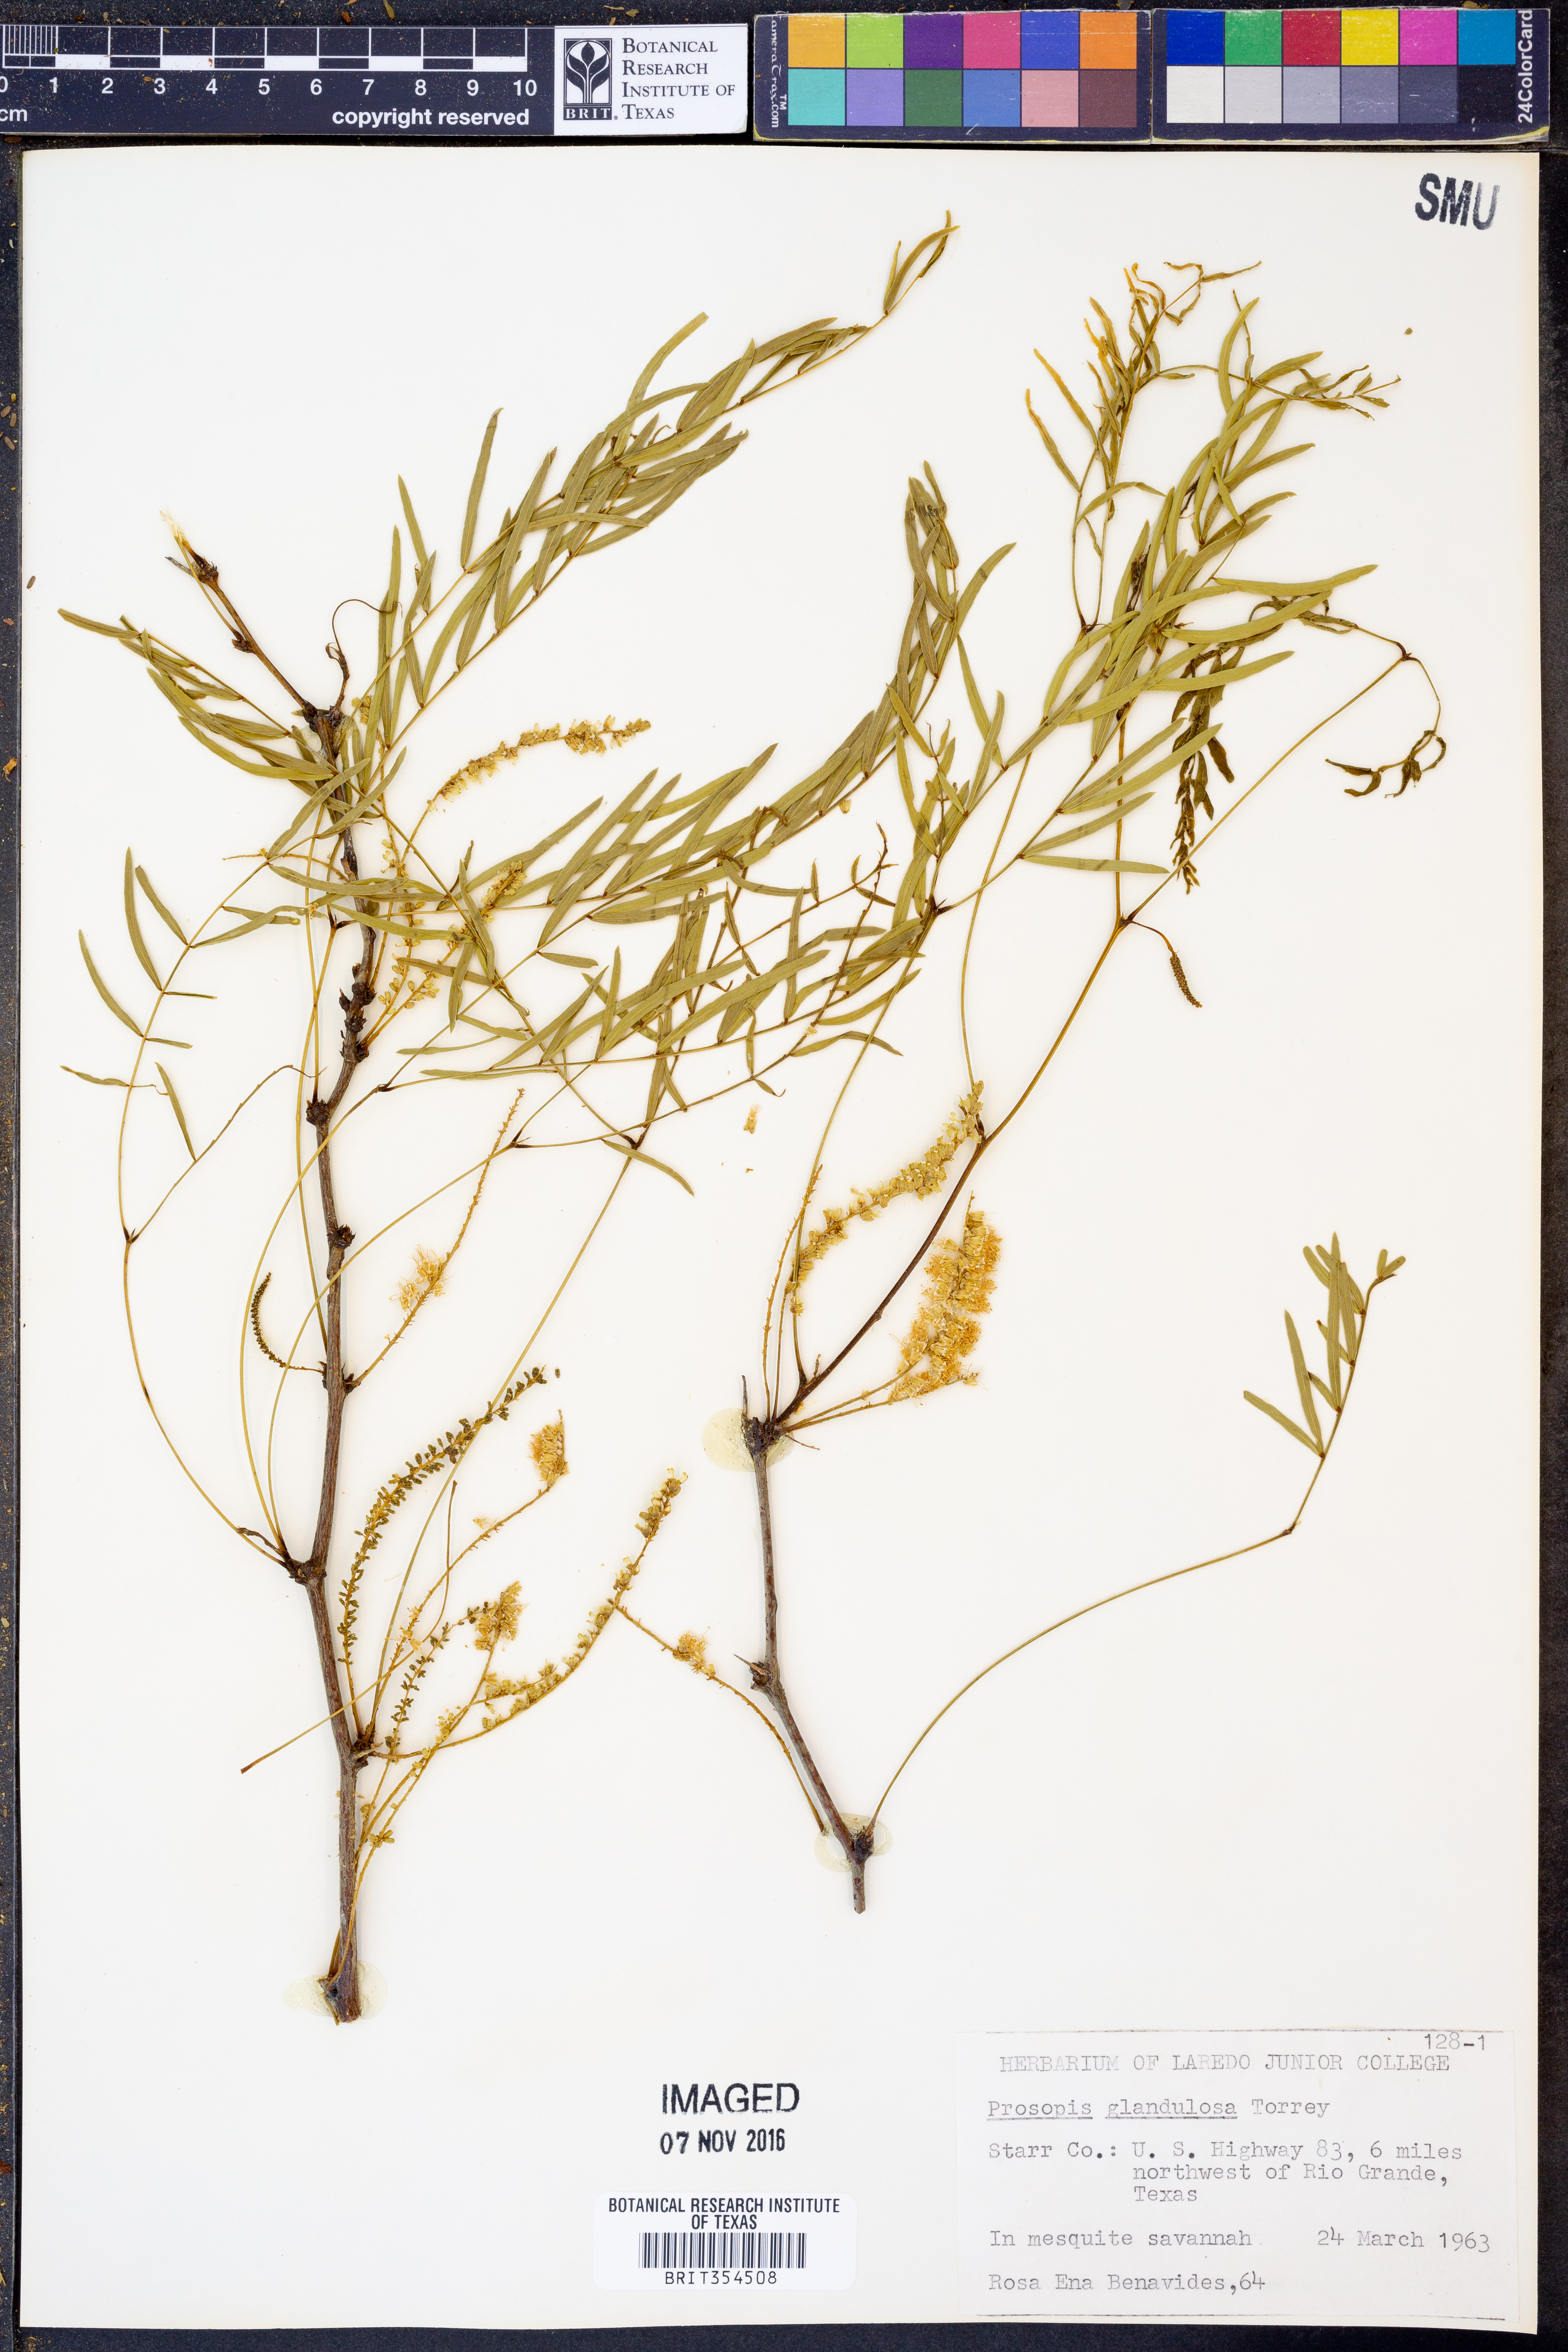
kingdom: Plantae
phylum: Tracheophyta
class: Magnoliopsida
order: Fabales
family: Fabaceae
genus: Prosopis
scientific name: Prosopis glandulosa
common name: Honey mesquite
